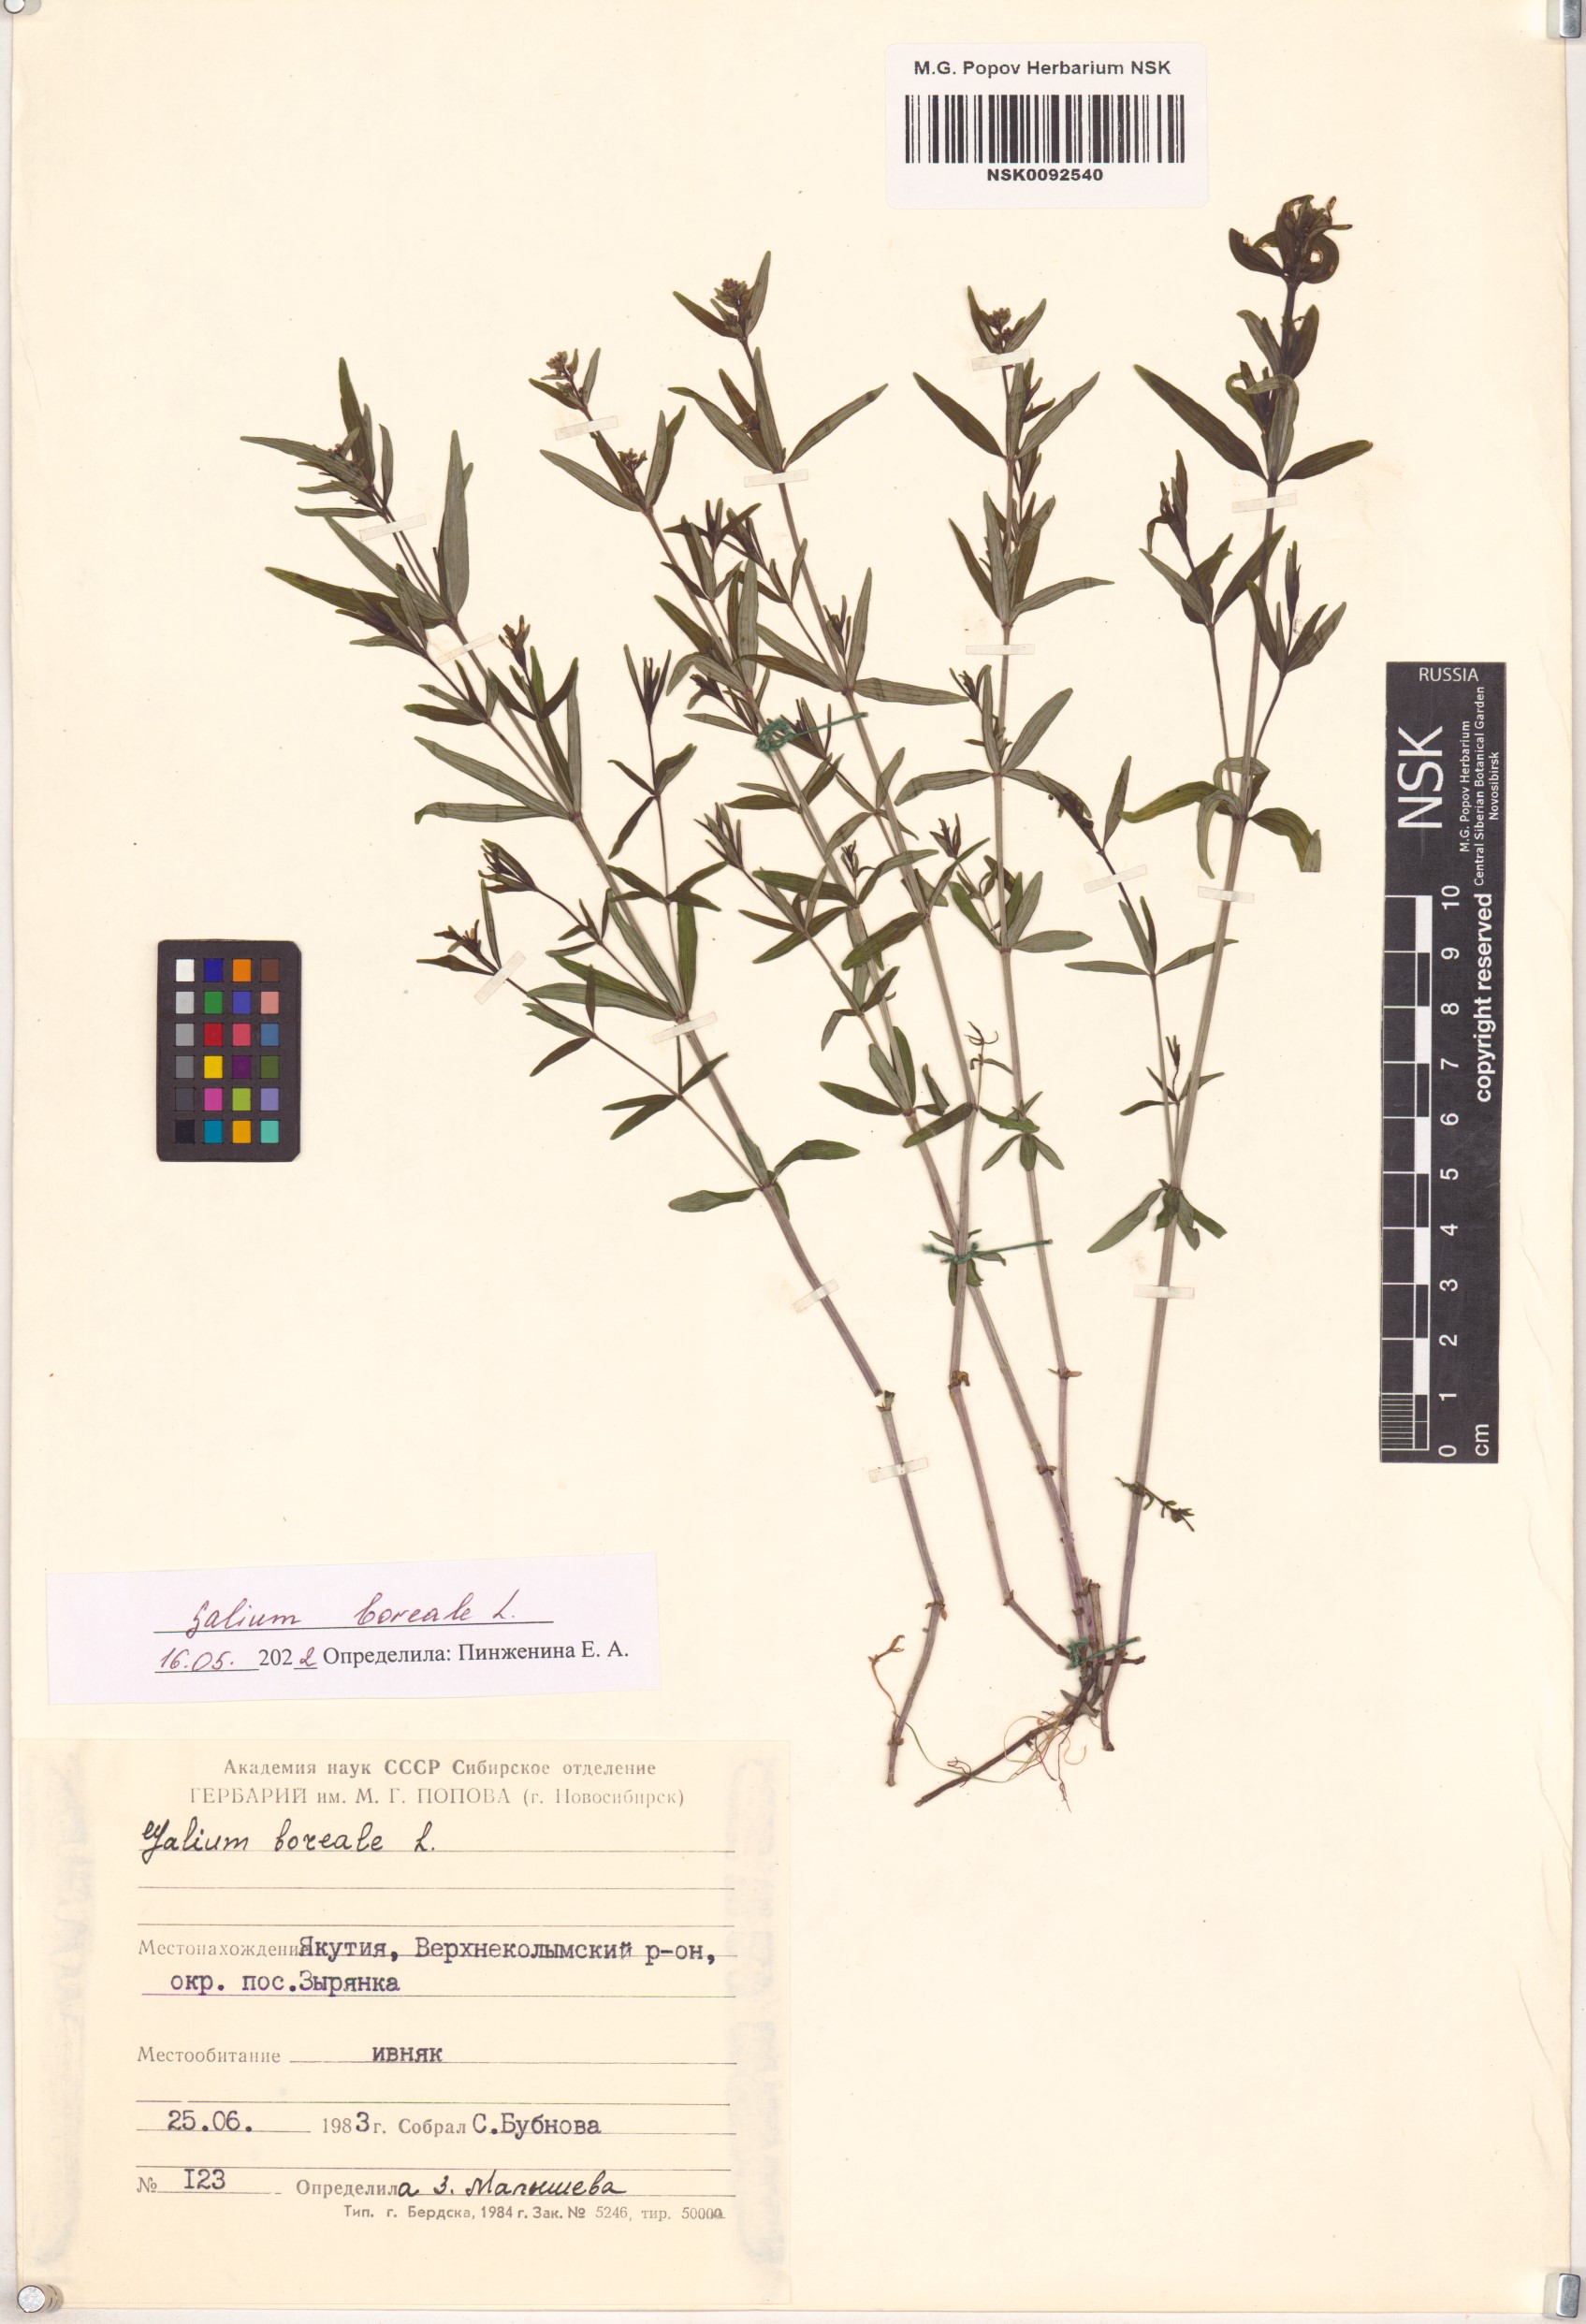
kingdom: Plantae
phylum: Tracheophyta
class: Magnoliopsida
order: Gentianales
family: Rubiaceae
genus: Galium
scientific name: Galium boreale
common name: Northern bedstraw
